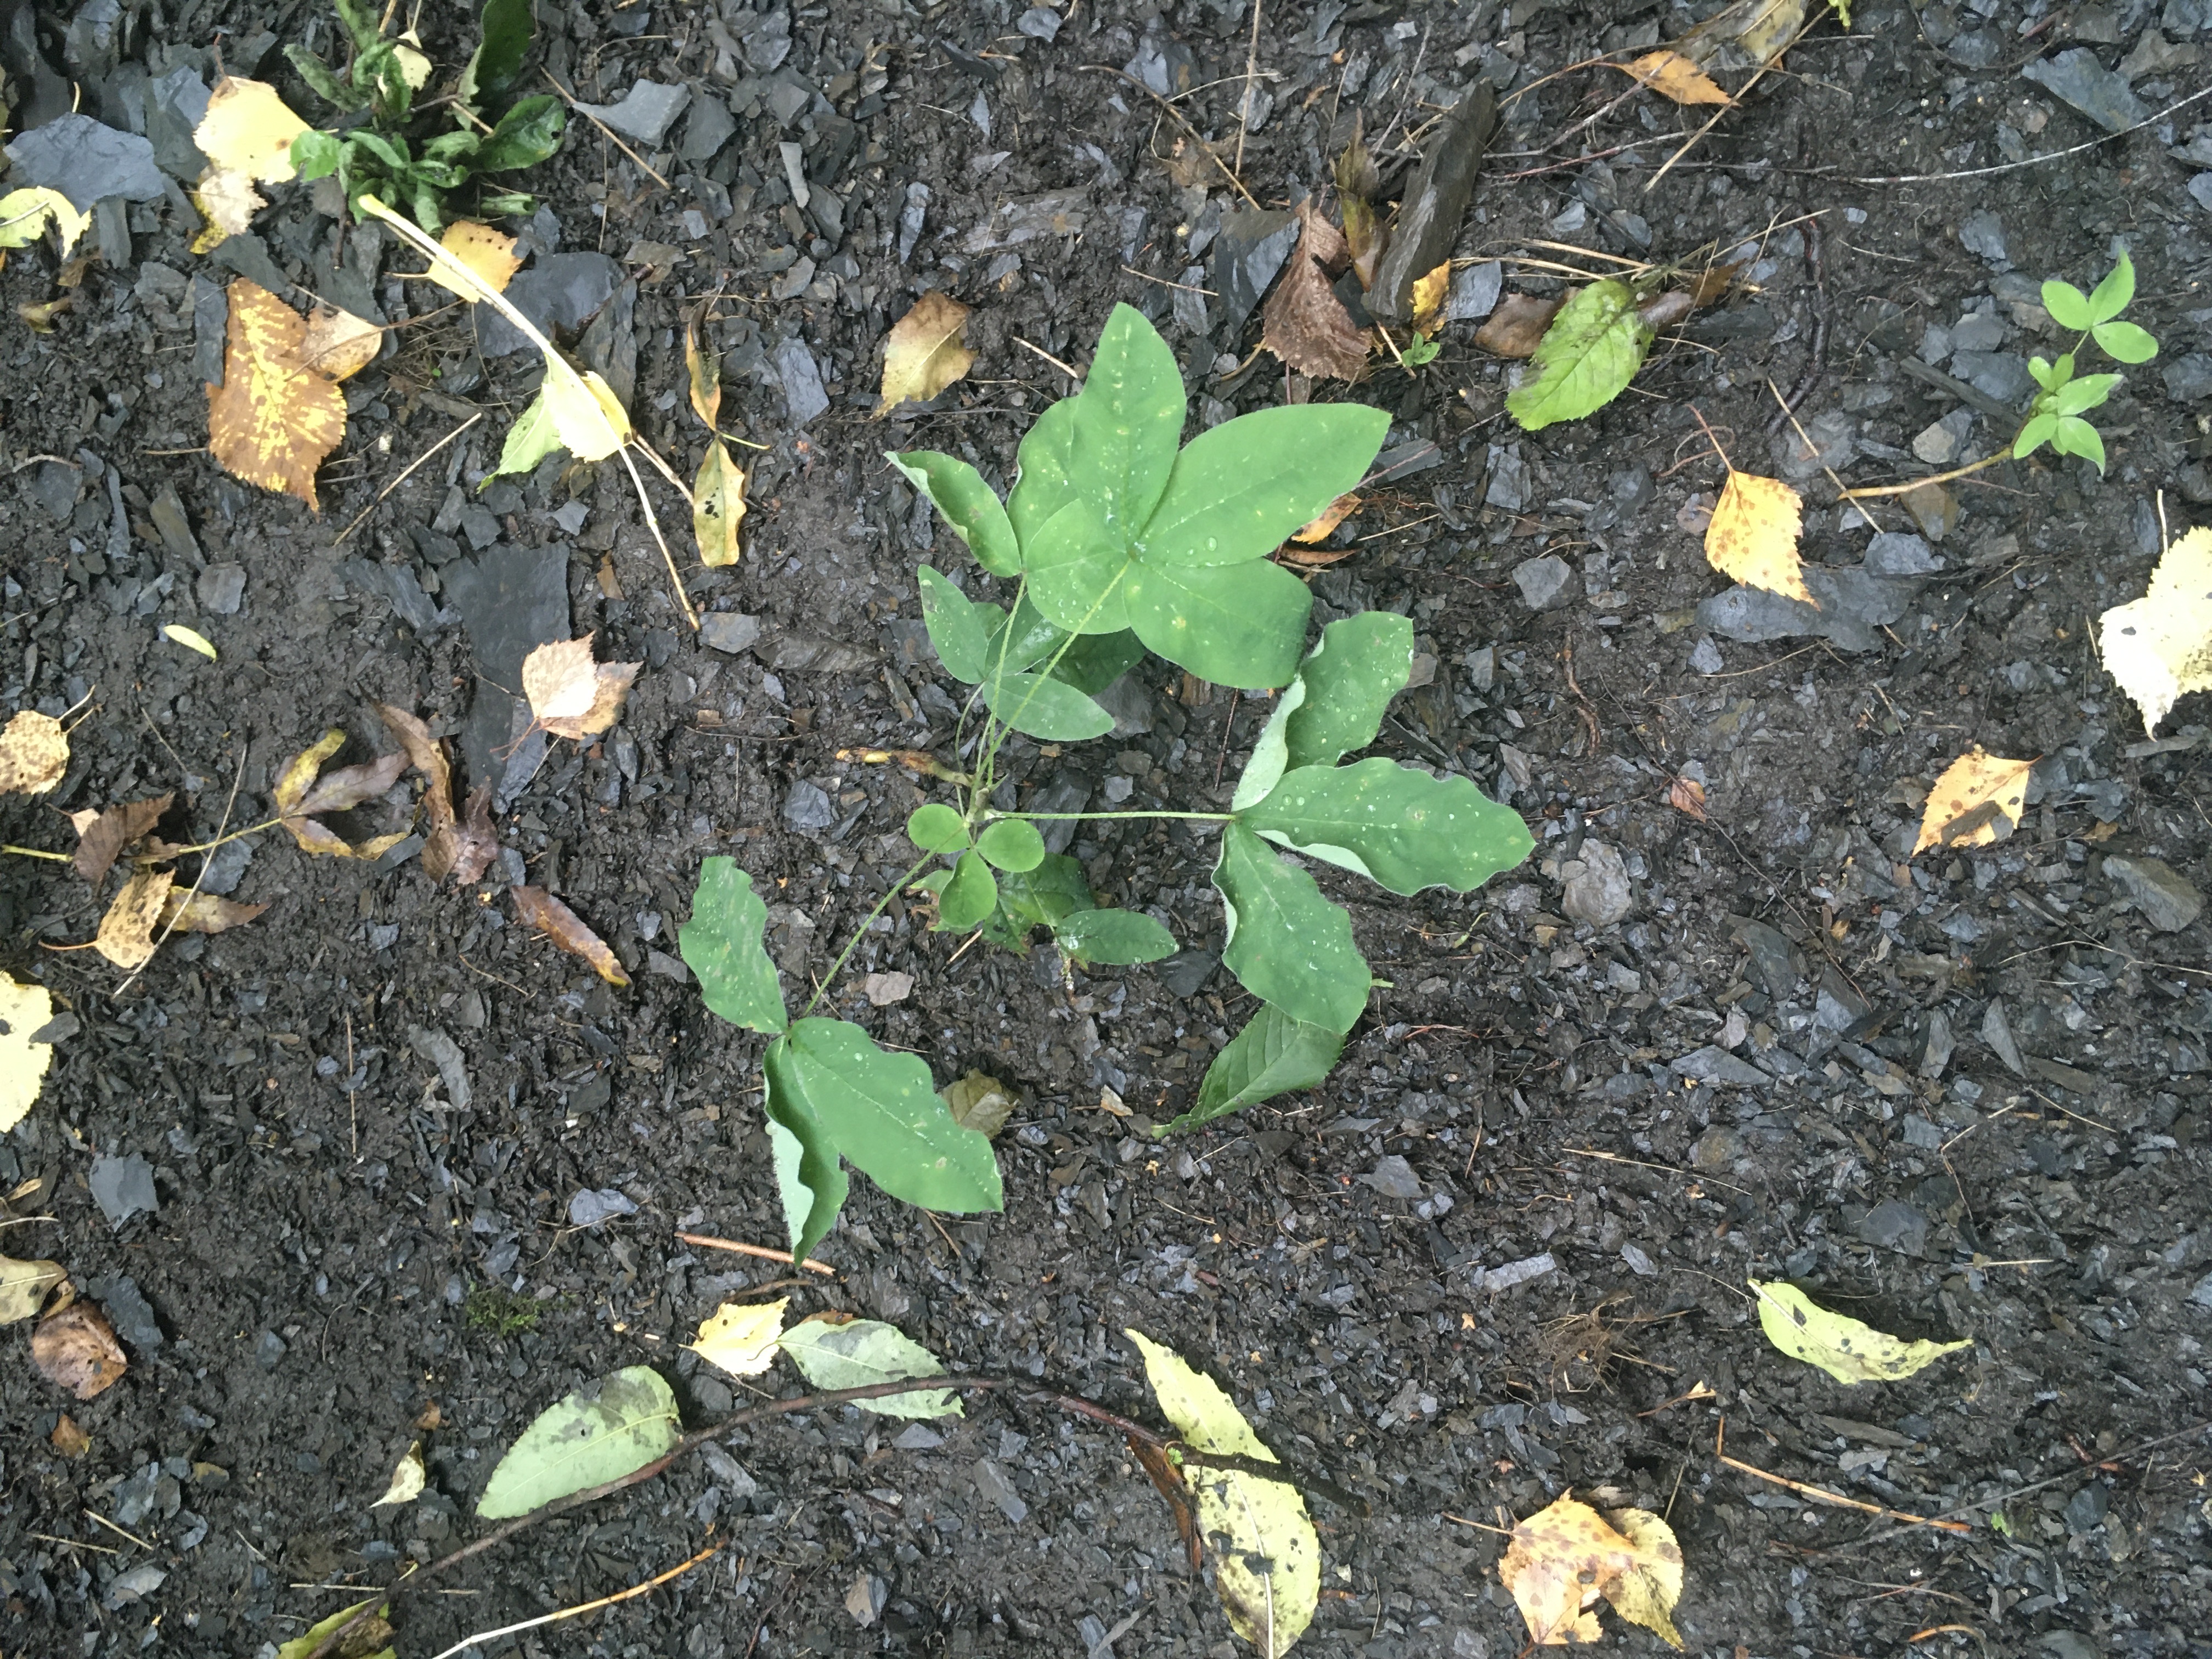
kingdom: Plantae
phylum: Tracheophyta
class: Magnoliopsida
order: Fabales
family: Fabaceae
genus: Laburnum
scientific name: Laburnum alpinum
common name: alpegullregn
